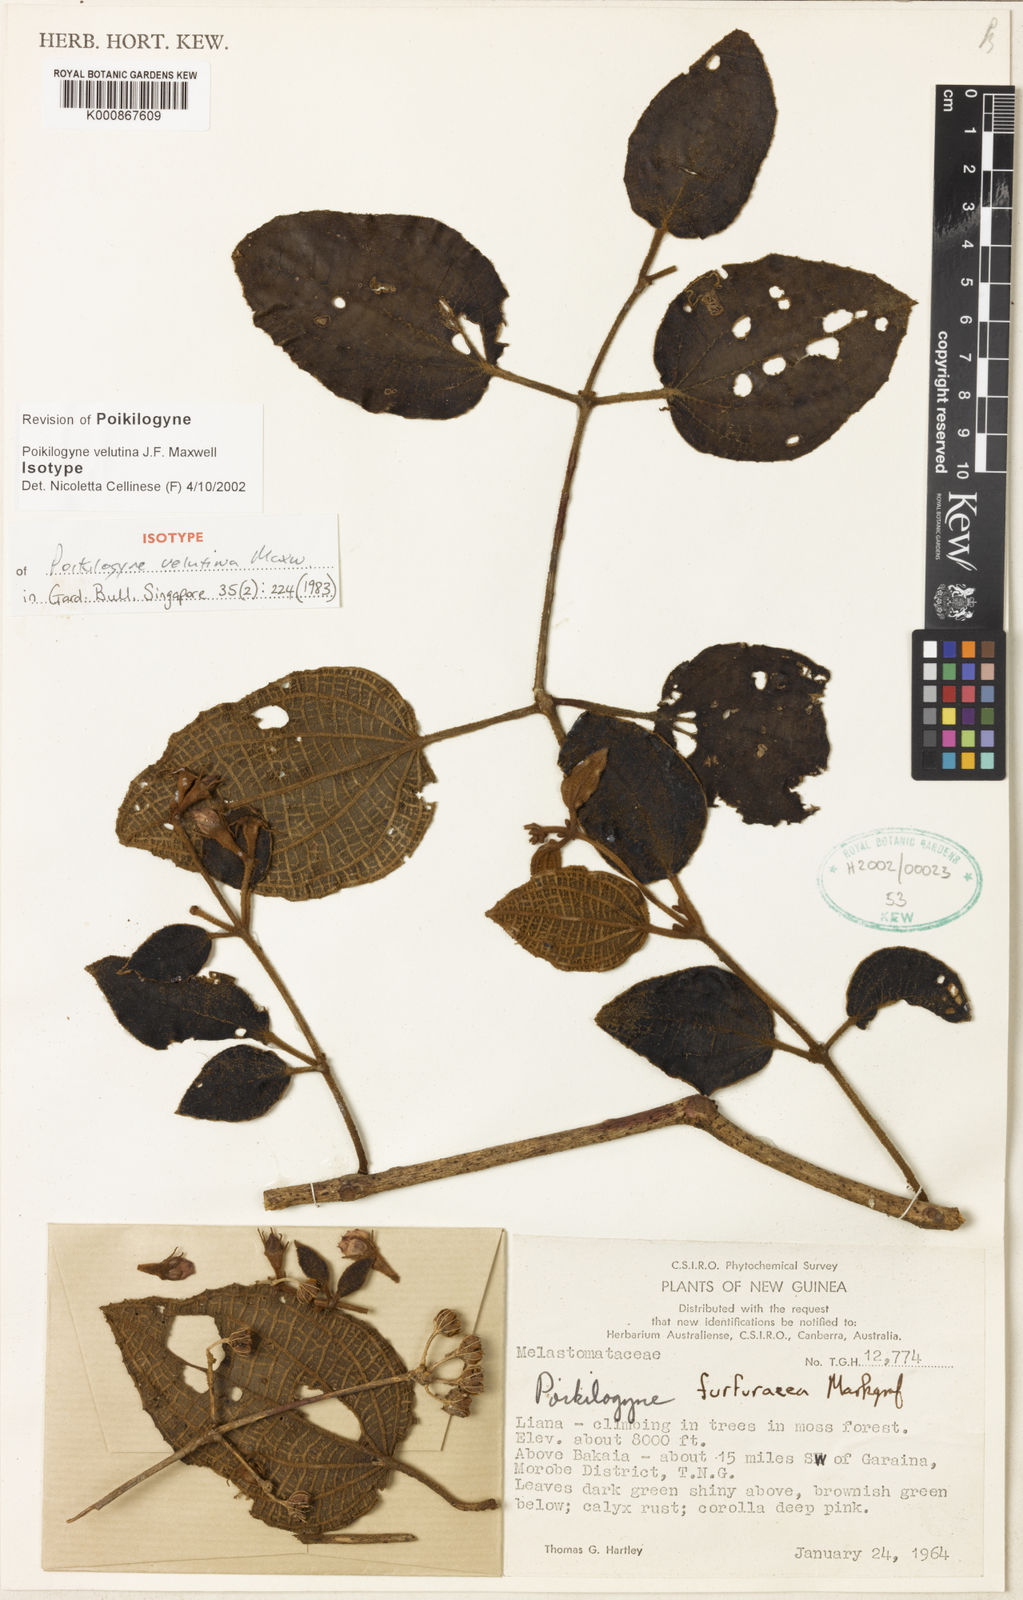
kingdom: Plantae
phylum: Tracheophyta
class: Magnoliopsida
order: Myrtales
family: Melastomataceae
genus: Poikilogyne
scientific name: Poikilogyne velutina
